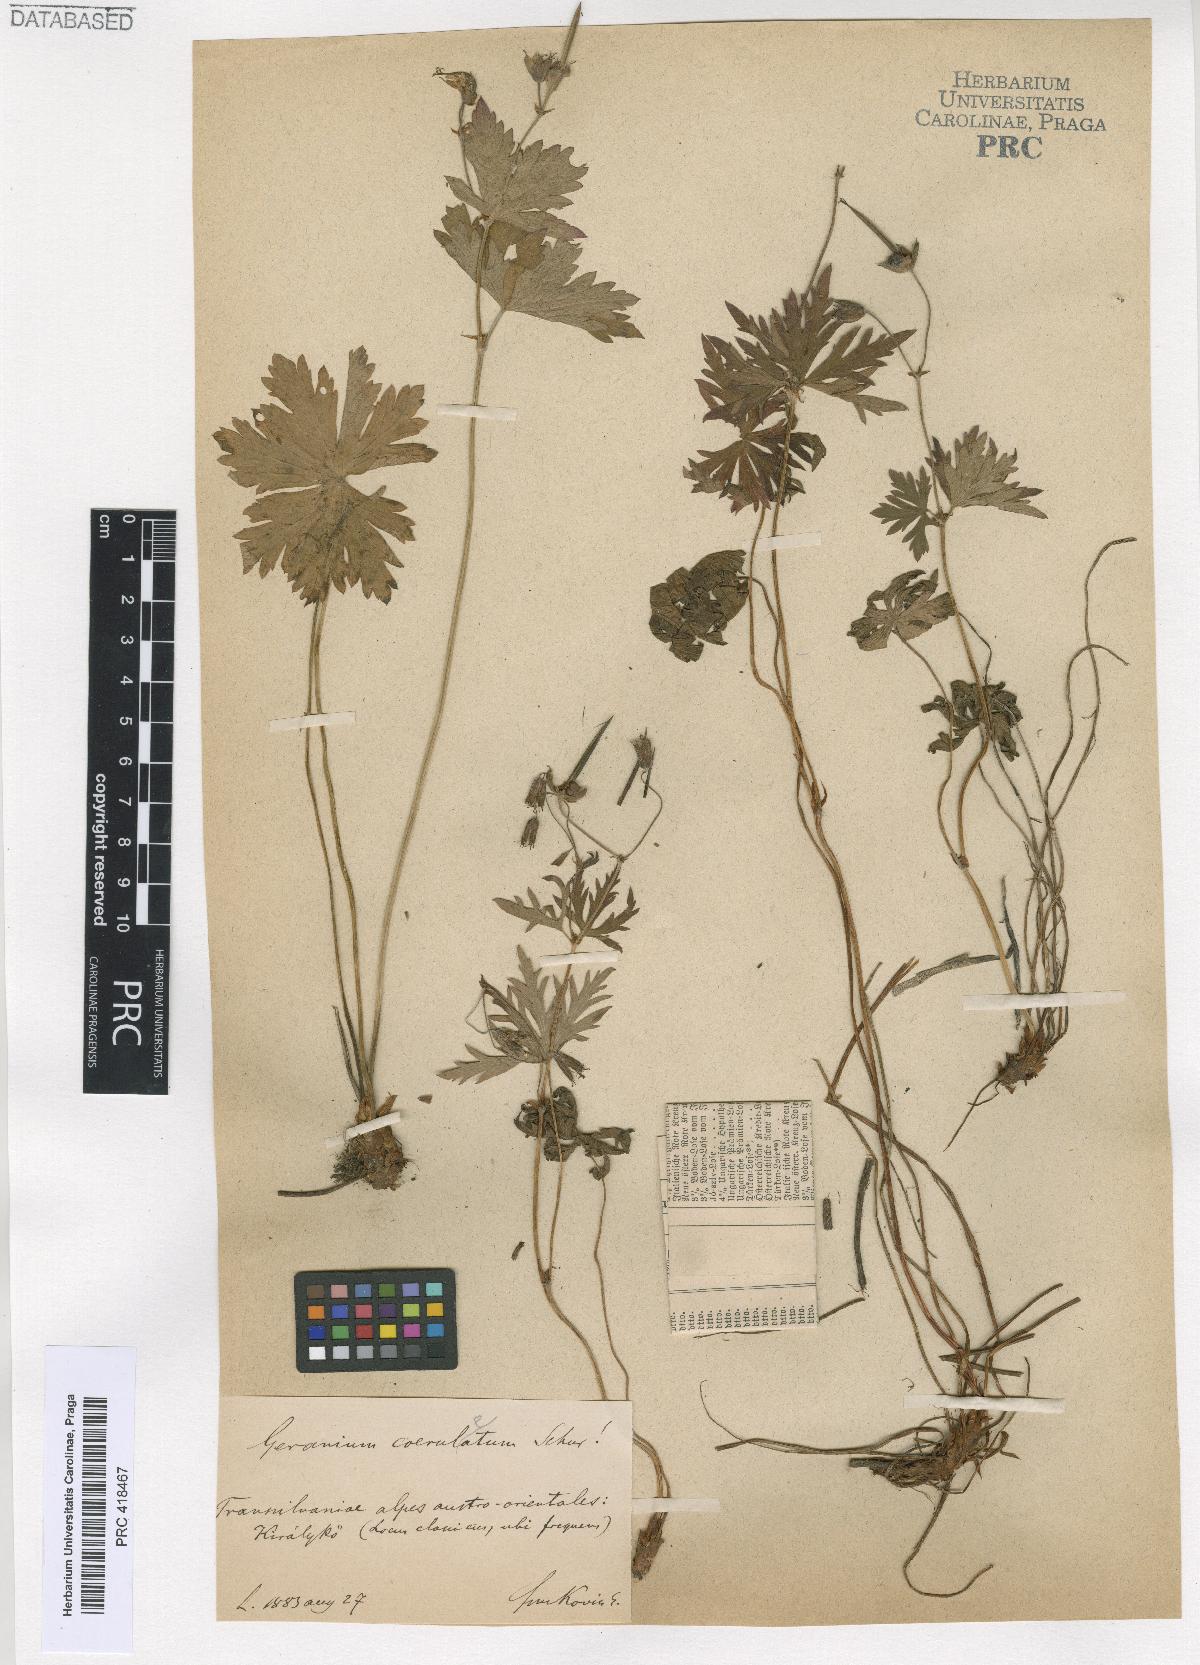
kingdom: Plantae
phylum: Tracheophyta
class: Magnoliopsida
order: Geraniales
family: Geraniaceae
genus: Geranium
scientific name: Geranium caeruleatum
